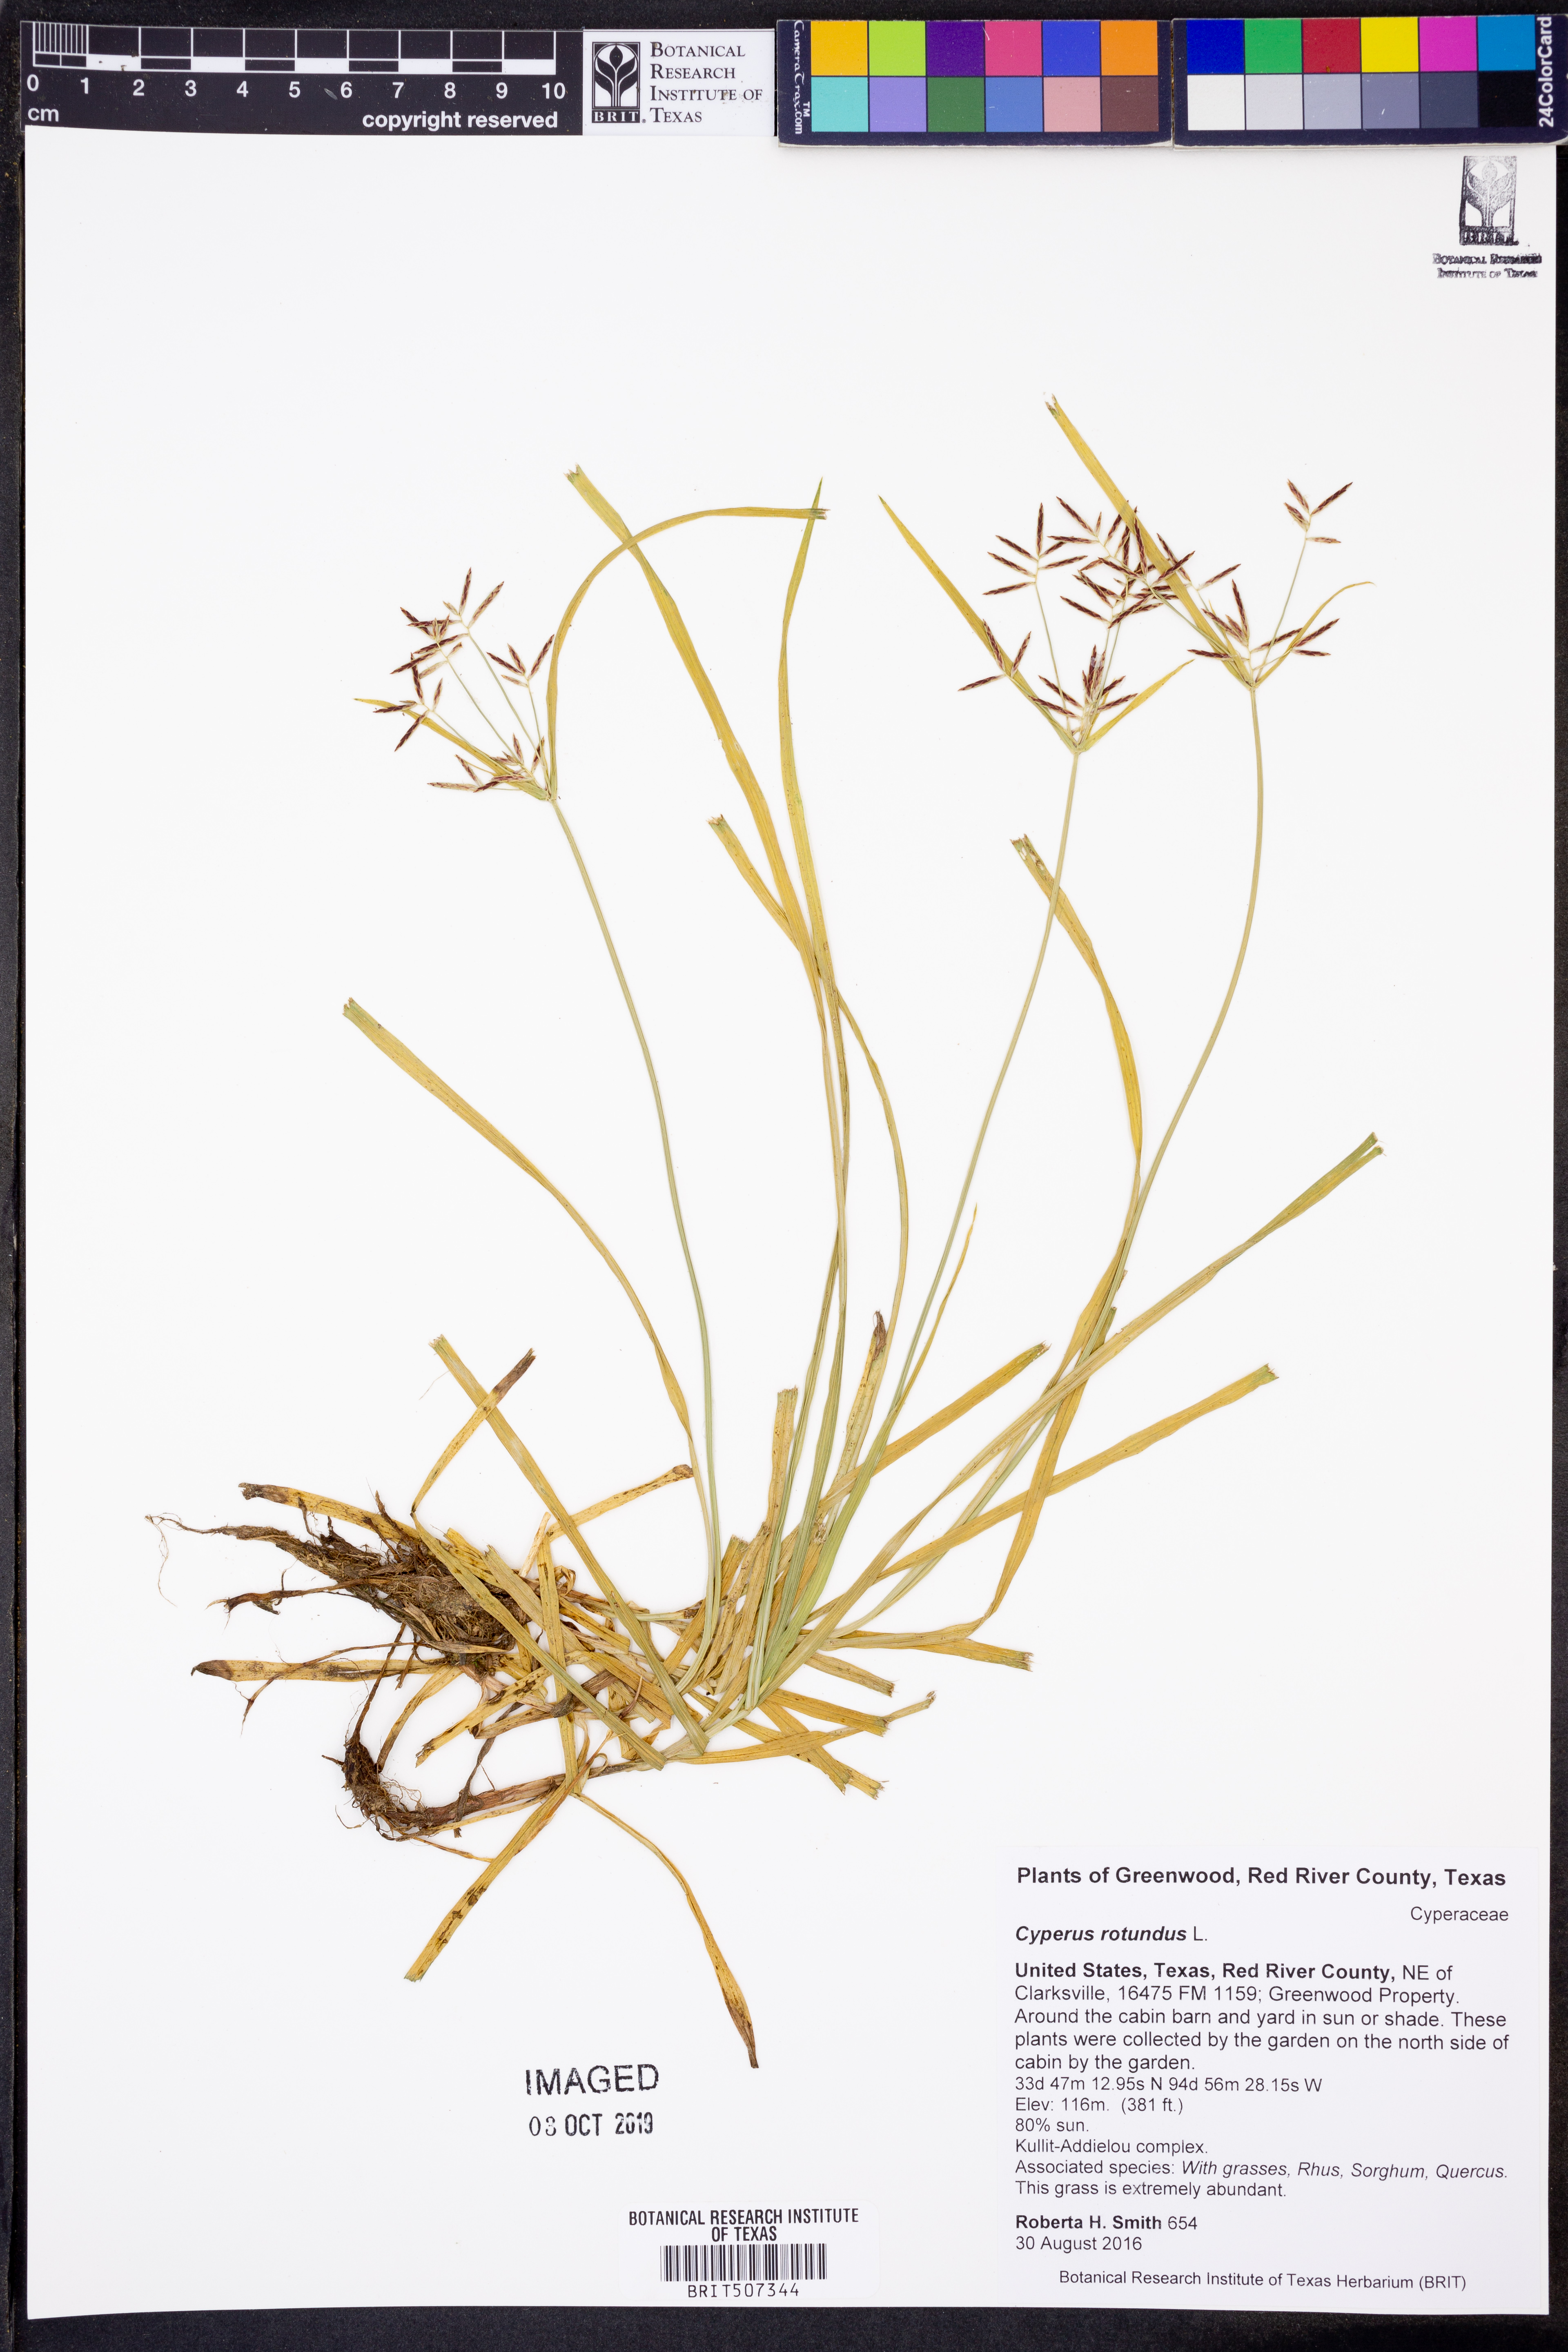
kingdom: Plantae
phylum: Tracheophyta
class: Liliopsida
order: Poales
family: Cyperaceae
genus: Cyperus
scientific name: Cyperus rotundus
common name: Nutgrass
